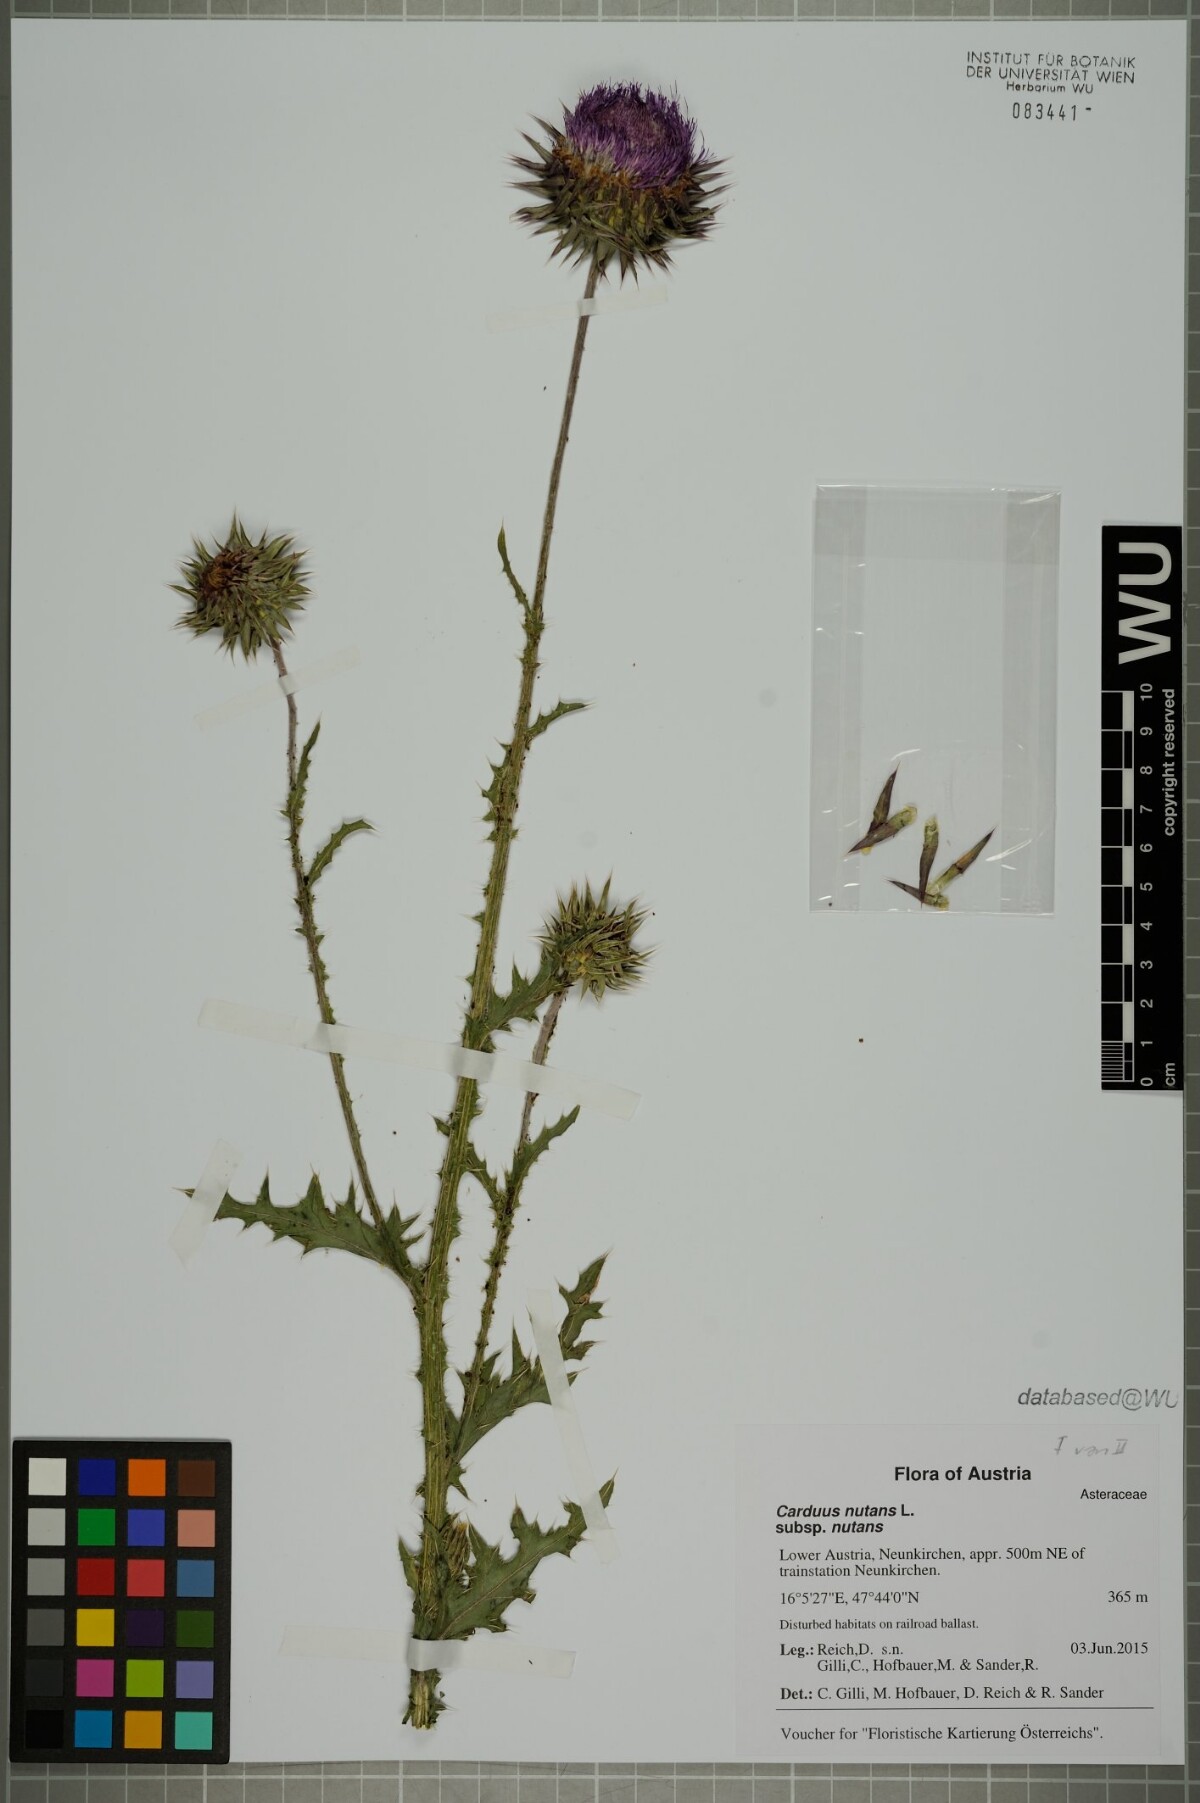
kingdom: Plantae
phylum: Tracheophyta
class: Magnoliopsida
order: Asterales
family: Asteraceae
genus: Carduus
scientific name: Carduus nutans
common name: Musk thistle
